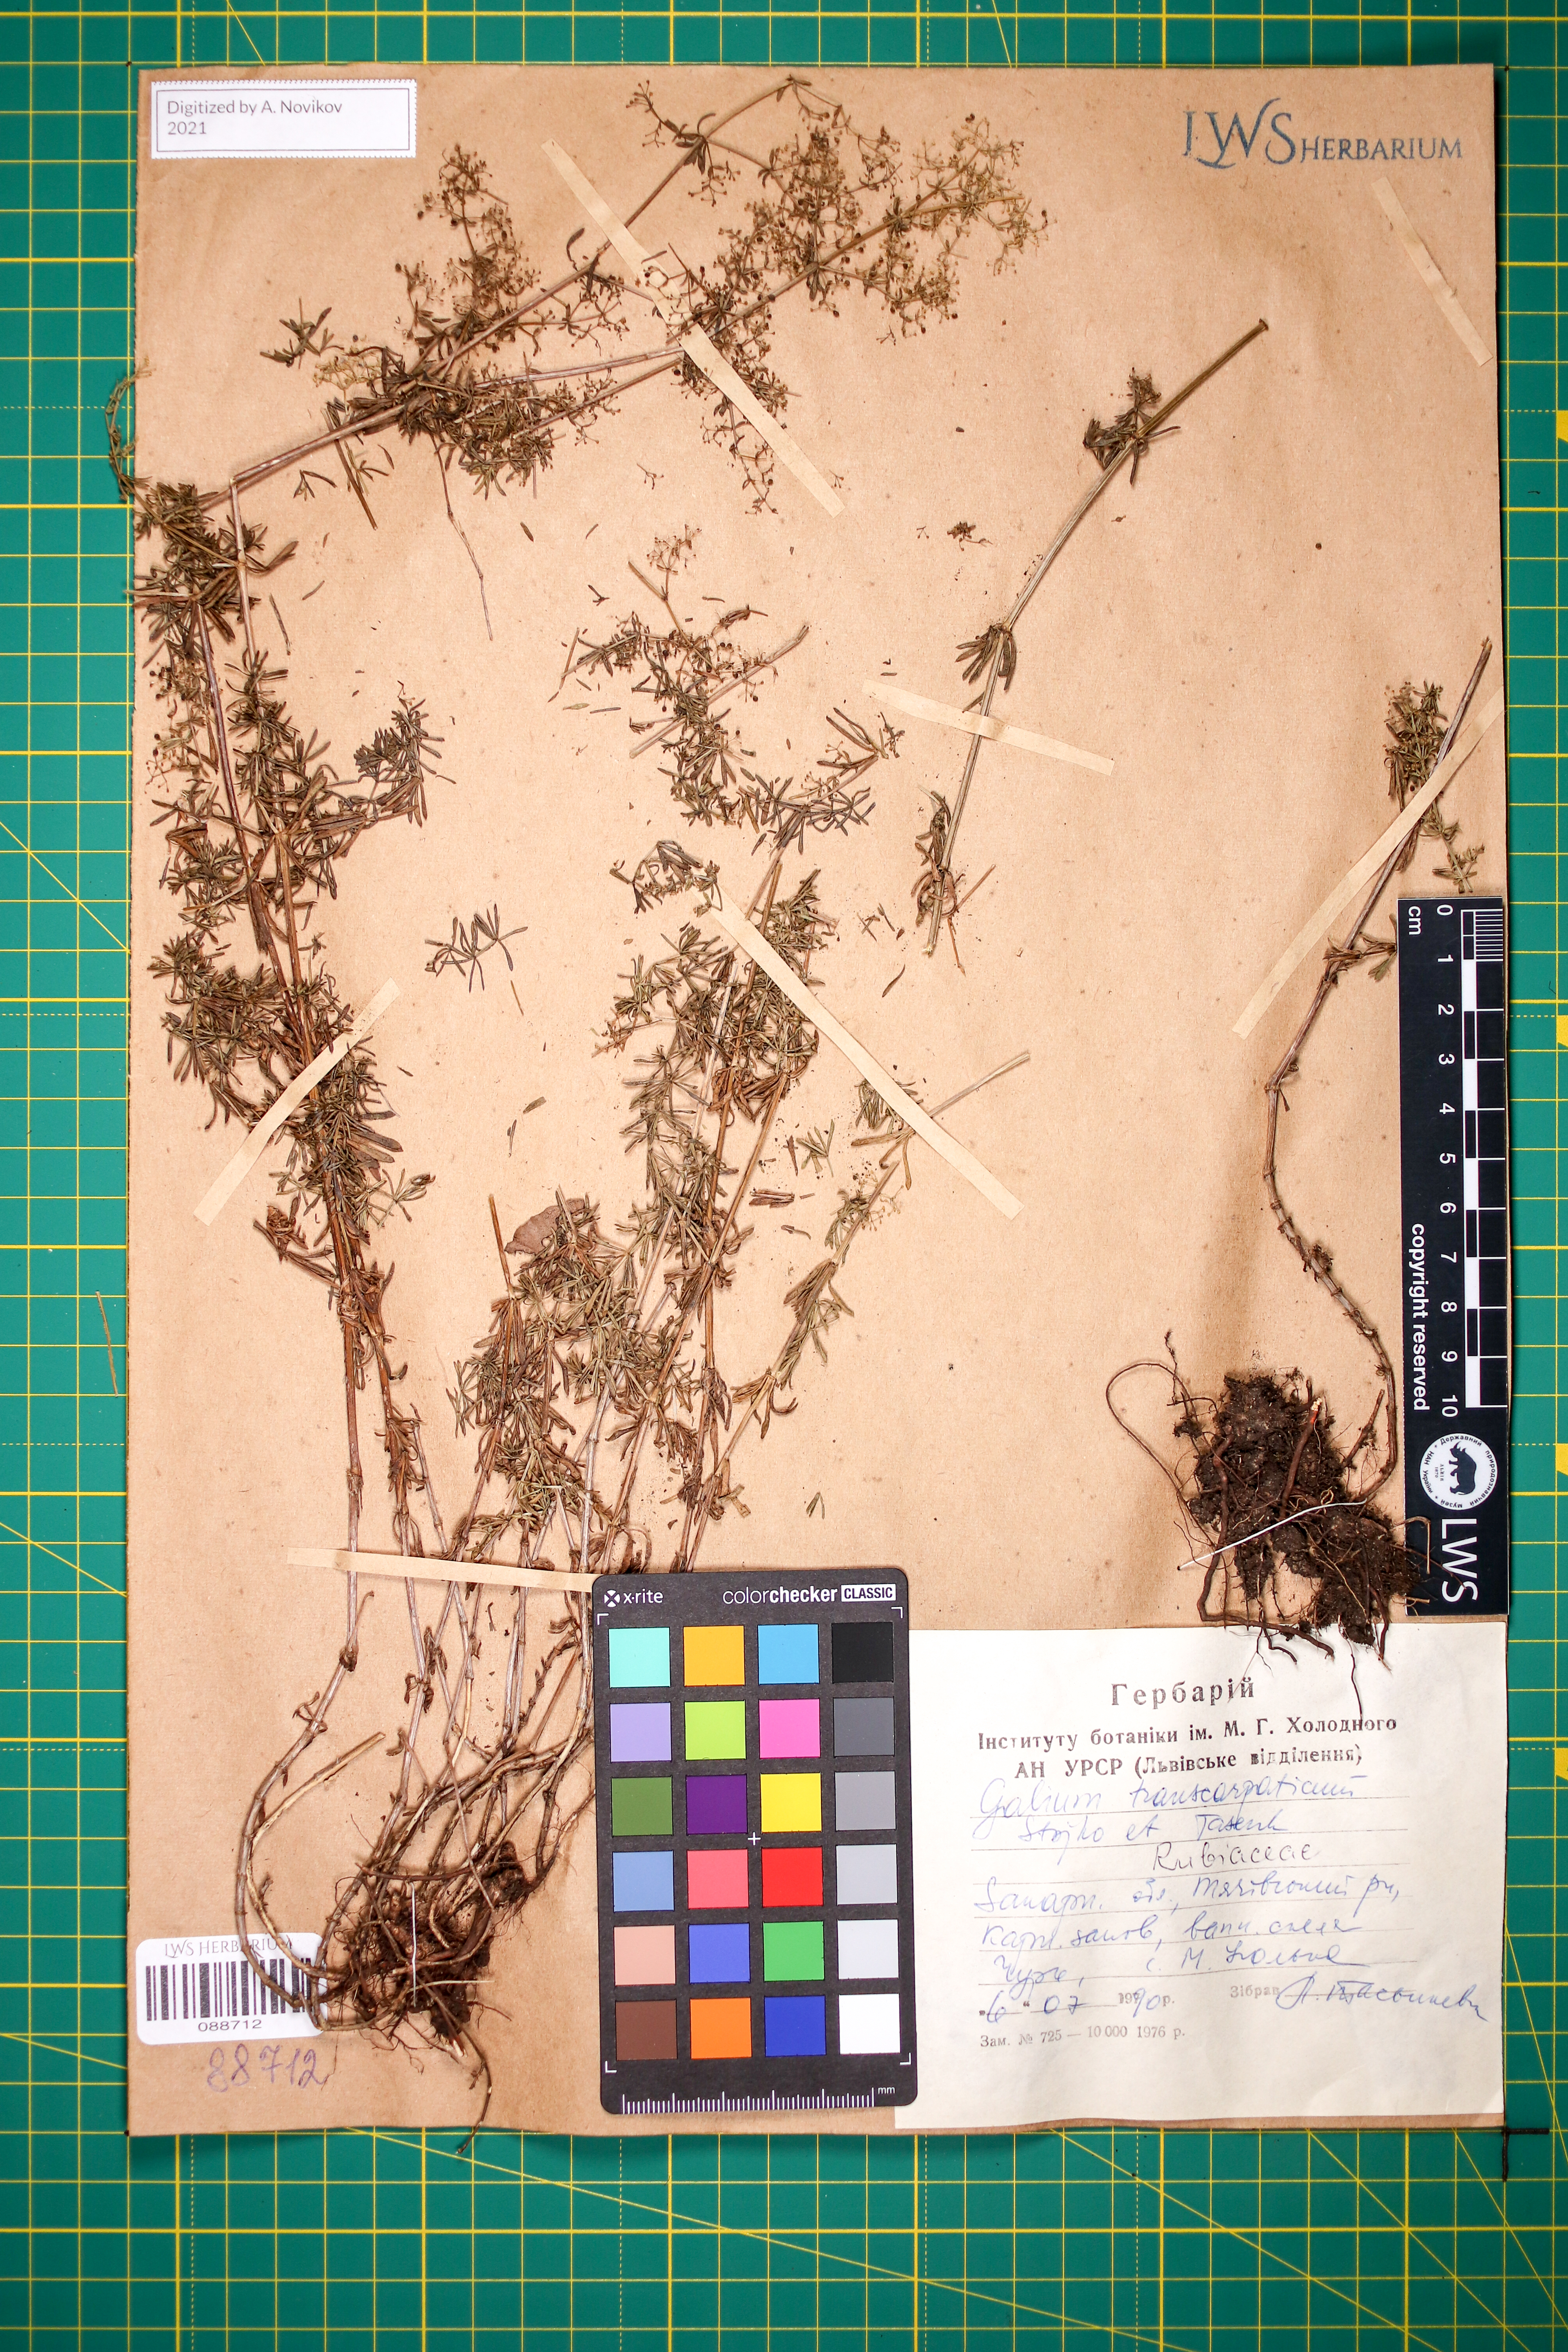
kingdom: Plantae
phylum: Tracheophyta
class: Magnoliopsida
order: Gentianales
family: Rubiaceae
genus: Galium
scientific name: Galium transcarpaticum
